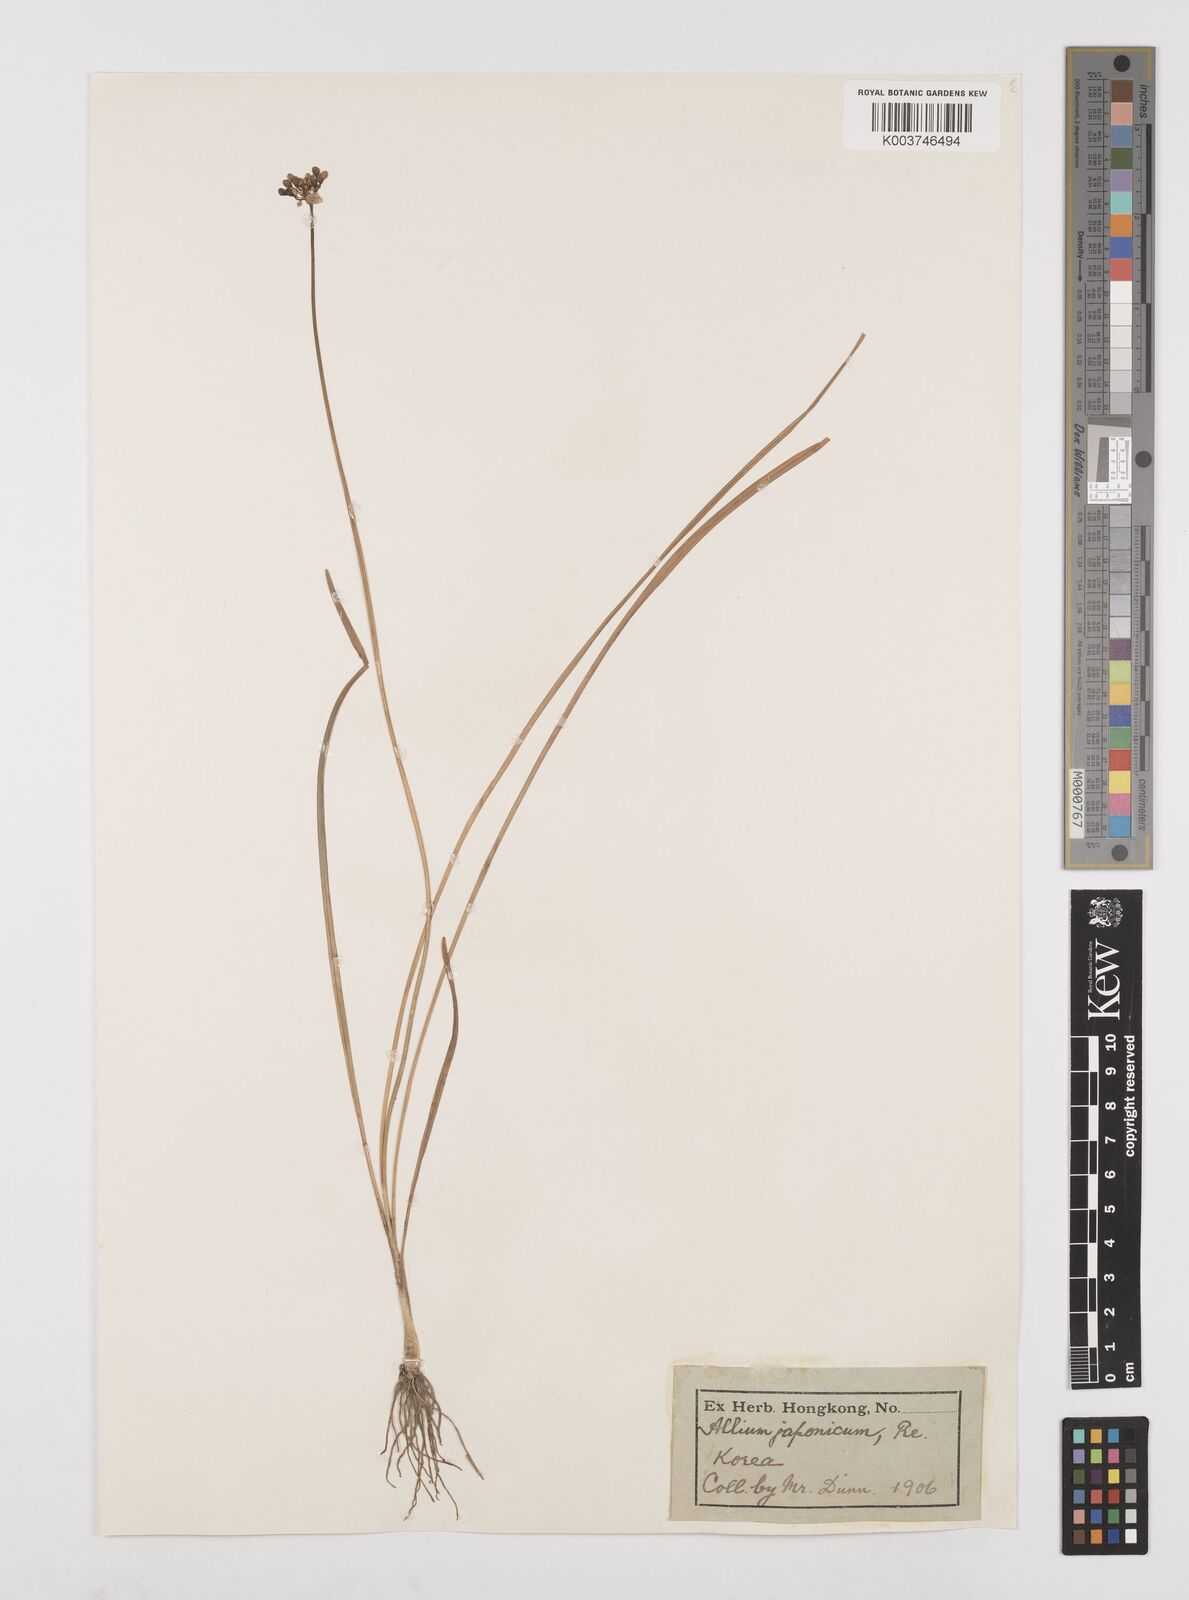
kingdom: Plantae
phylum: Tracheophyta
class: Liliopsida
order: Asparagales
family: Amaryllidaceae
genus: Allium
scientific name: Allium sacculiferum
